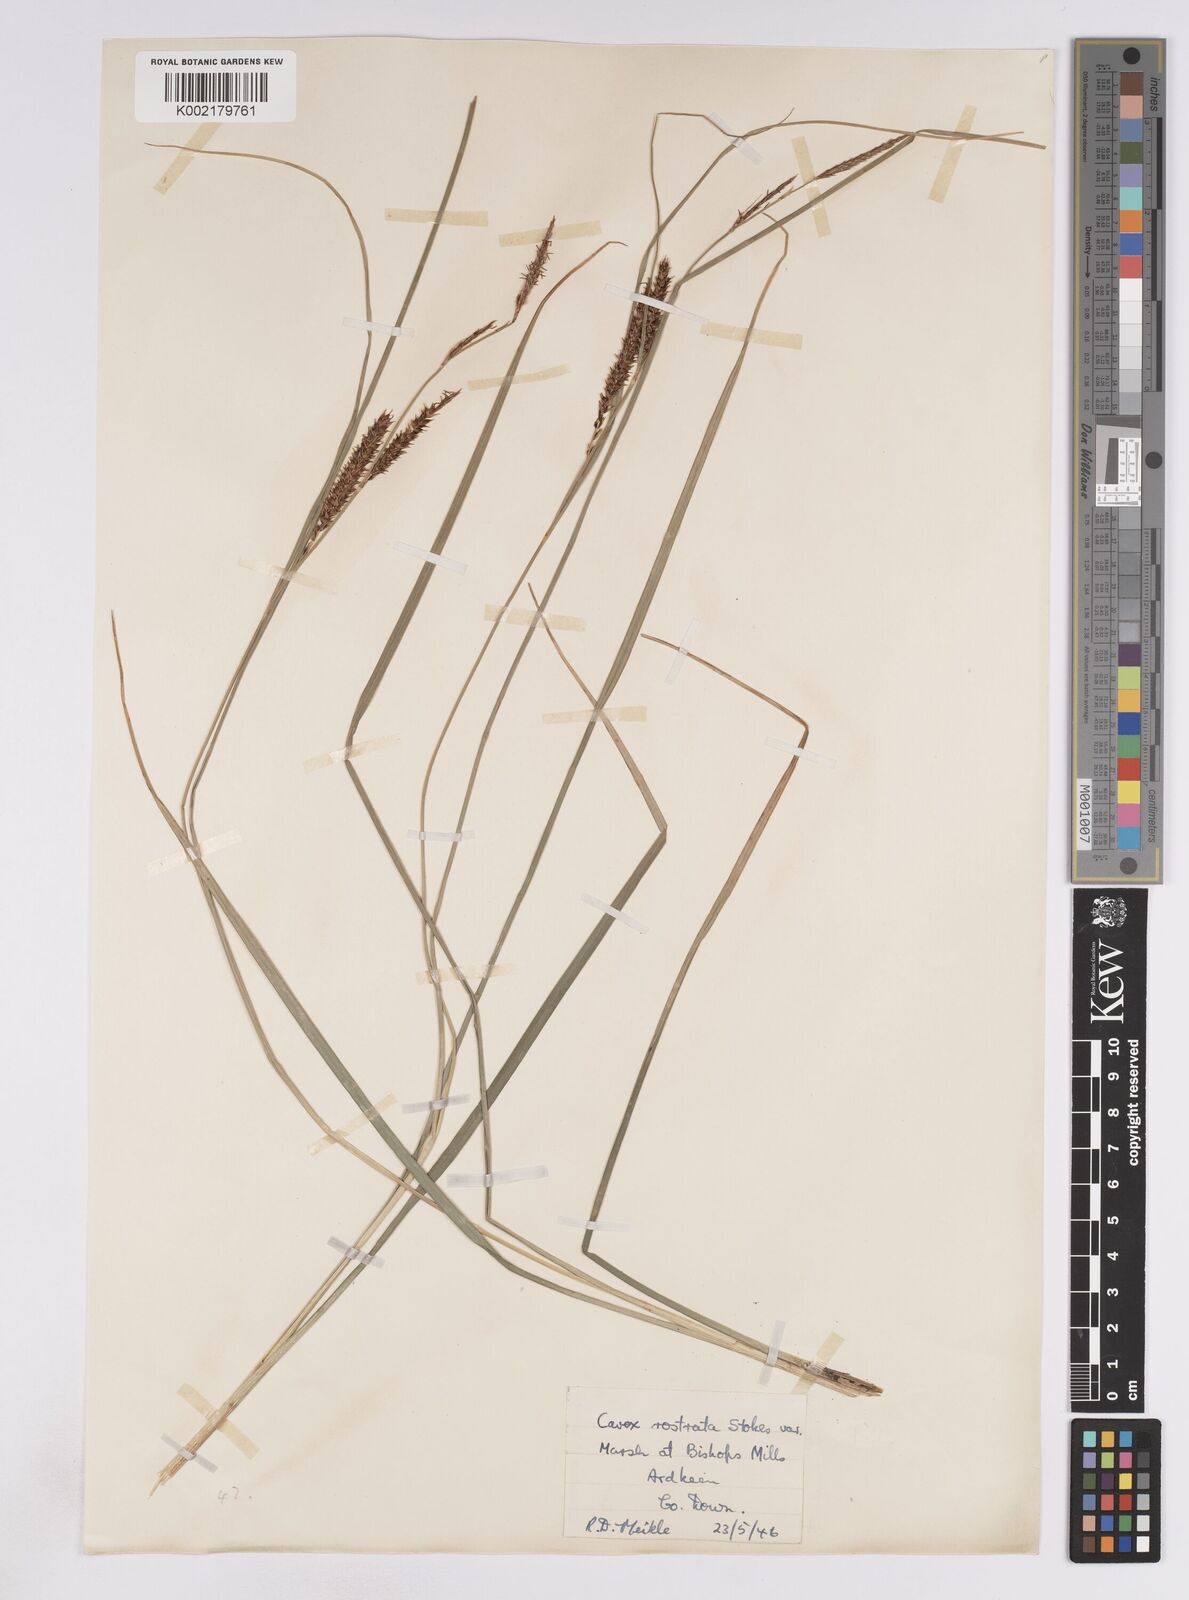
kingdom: Plantae
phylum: Tracheophyta
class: Liliopsida
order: Poales
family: Cyperaceae
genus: Carex
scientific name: Carex rostrata
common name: Bottle sedge
